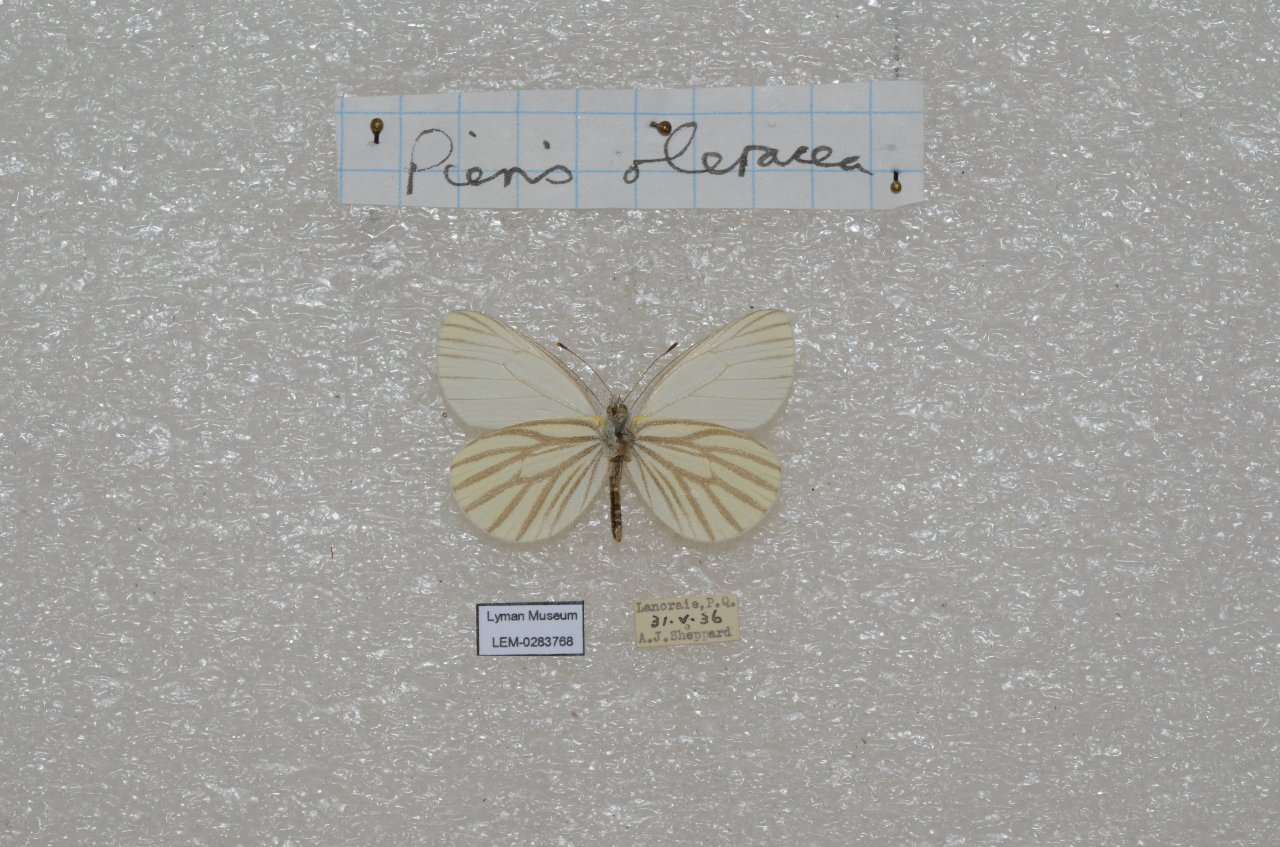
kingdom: Animalia
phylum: Arthropoda
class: Insecta
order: Lepidoptera
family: Pieridae
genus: Pieris
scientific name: Pieris oleracea
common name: Mustard White
